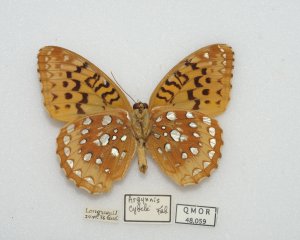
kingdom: Animalia
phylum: Arthropoda
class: Insecta
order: Lepidoptera
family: Nymphalidae
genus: Speyeria
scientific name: Speyeria cybele
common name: Great Spangled Fritillary
